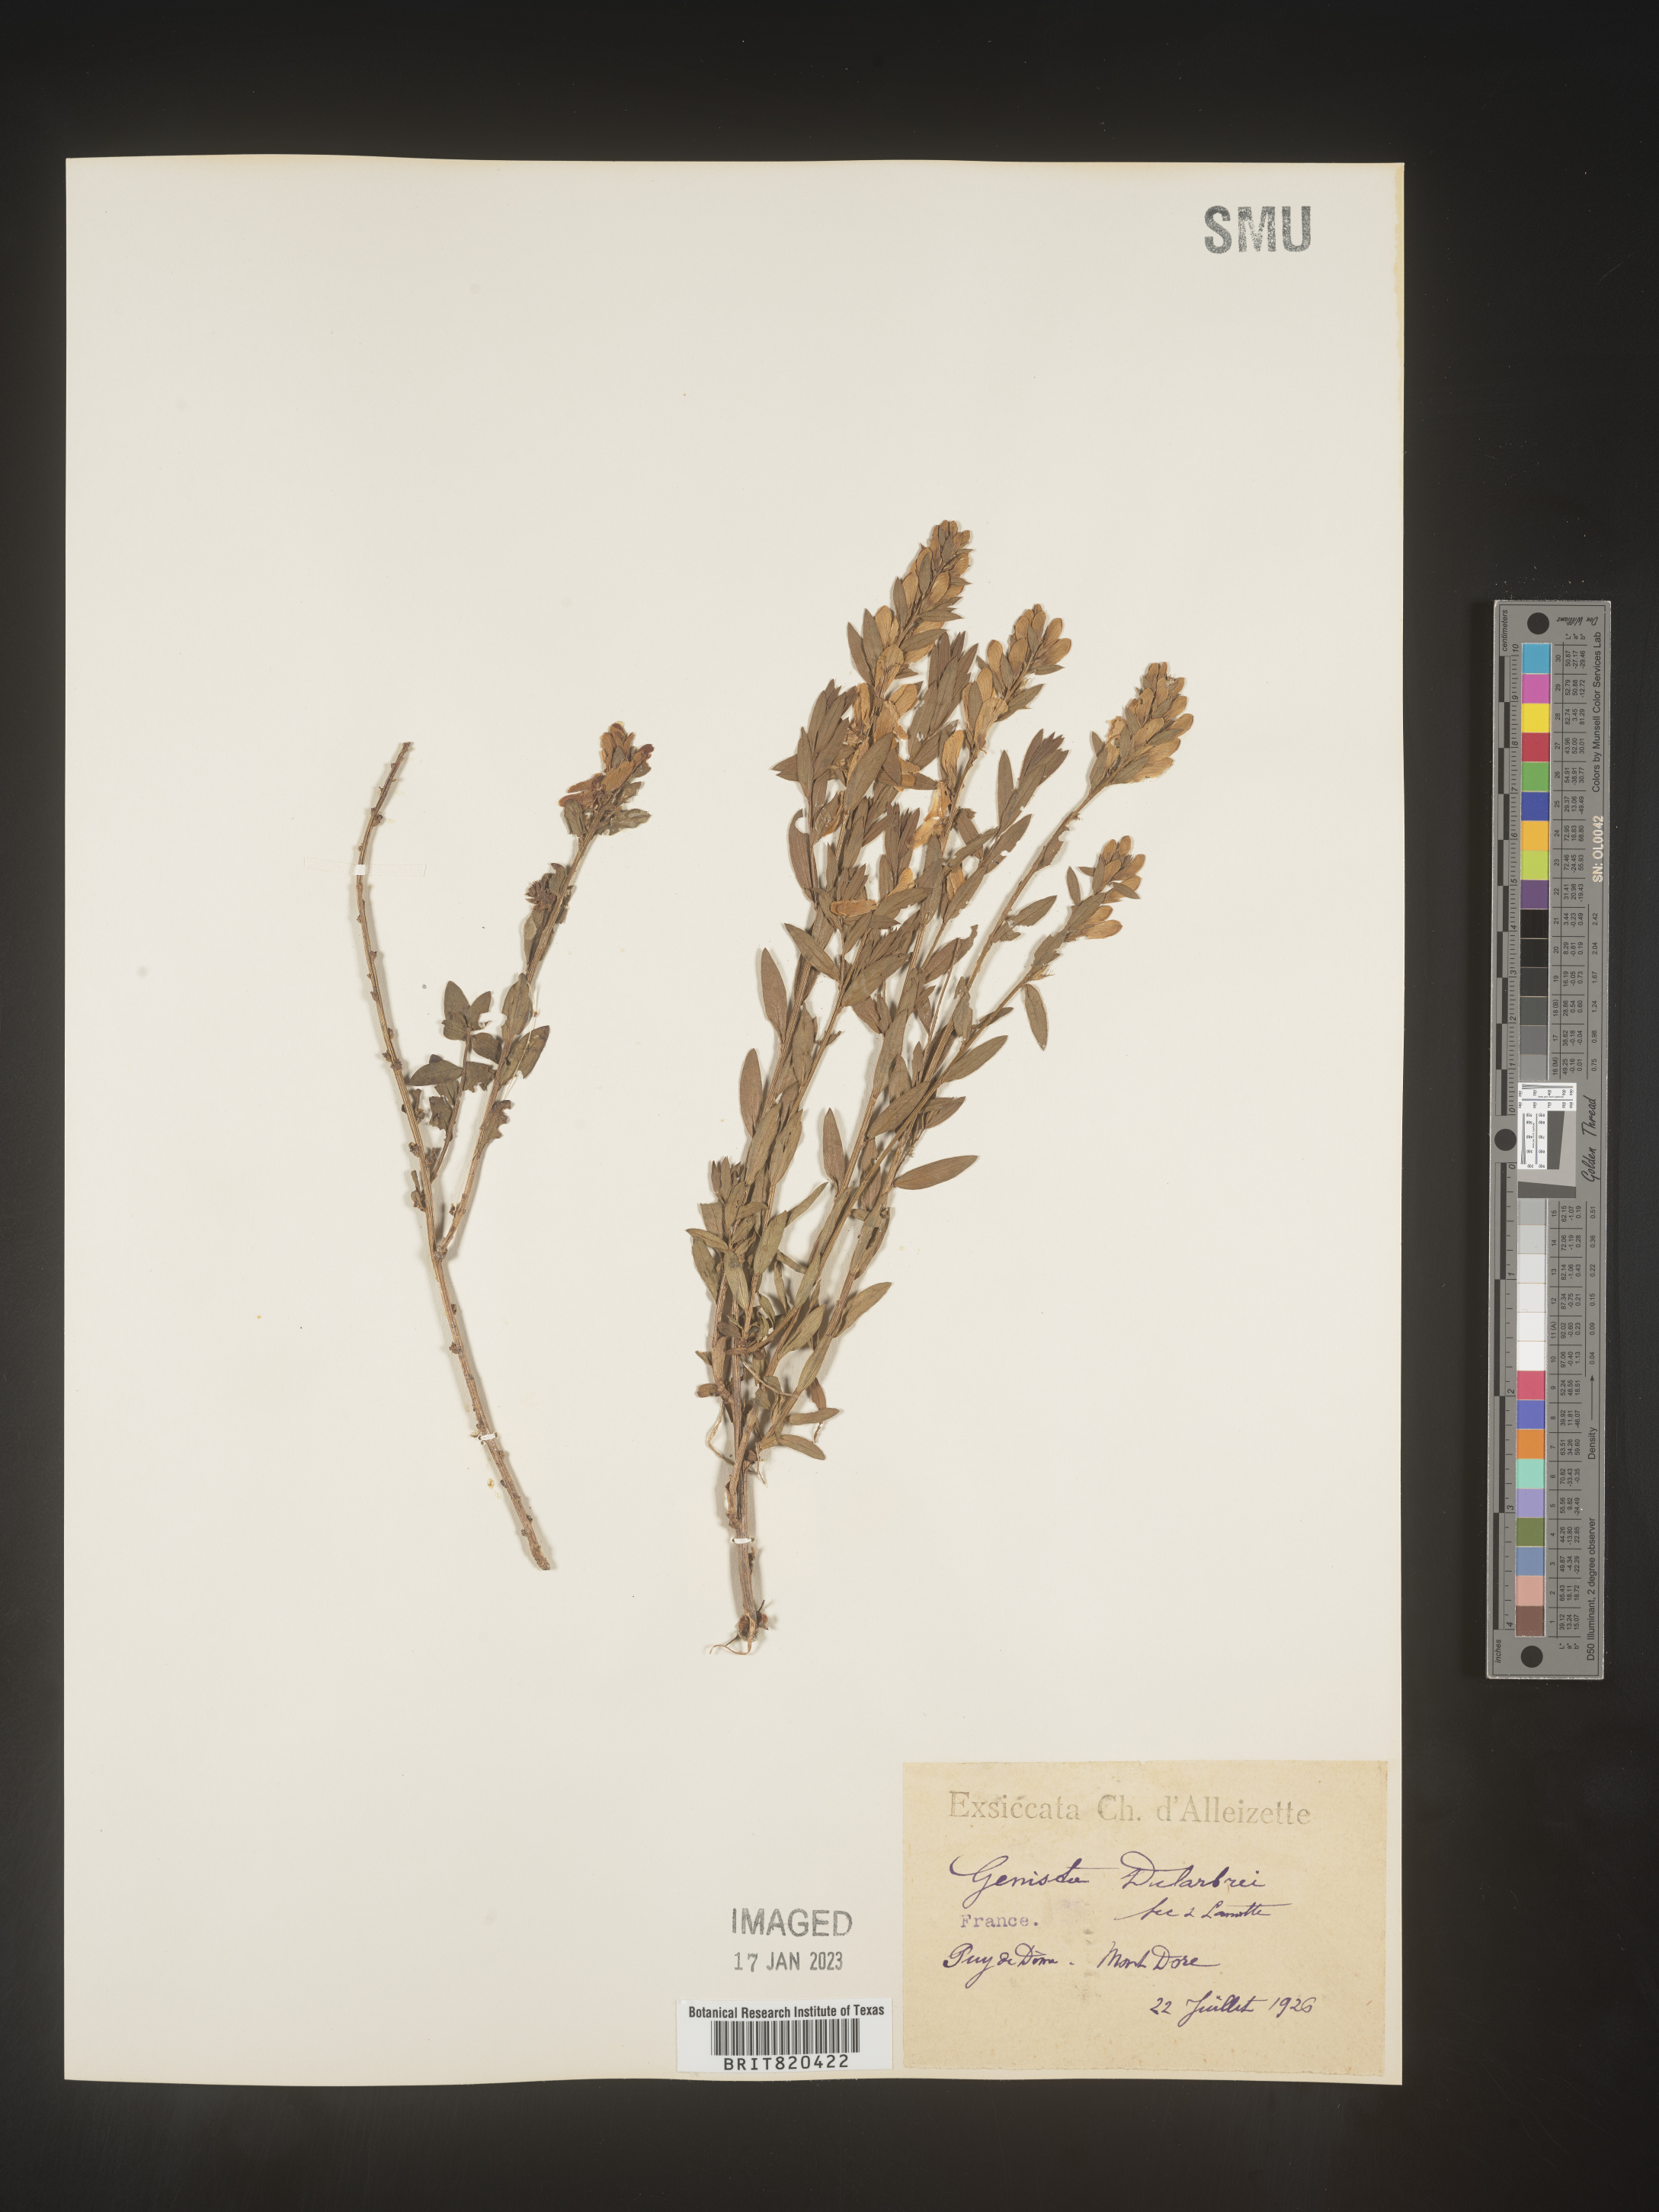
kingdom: Plantae
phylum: Tracheophyta
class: Magnoliopsida
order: Fabales
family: Fabaceae
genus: Genista
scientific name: Genista
